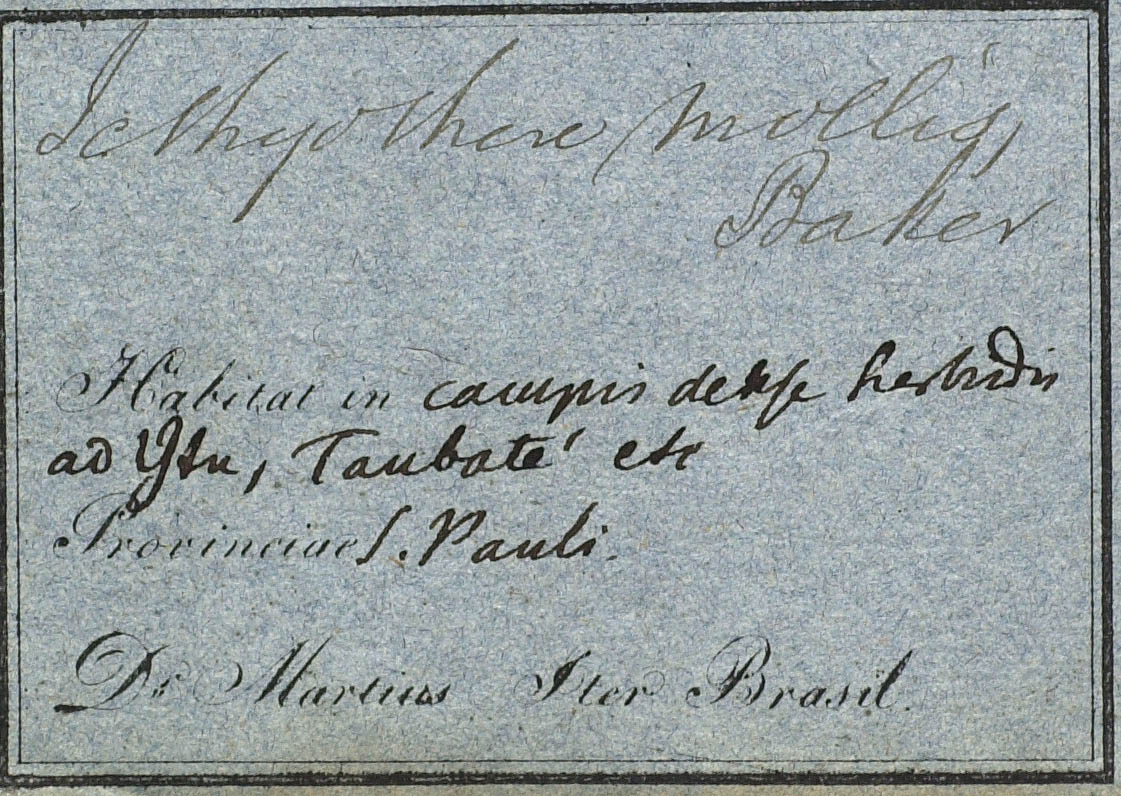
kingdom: Plantae
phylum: Tracheophyta
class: Magnoliopsida
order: Asterales
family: Asteraceae
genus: Ichthyothere
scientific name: Ichthyothere mollis
